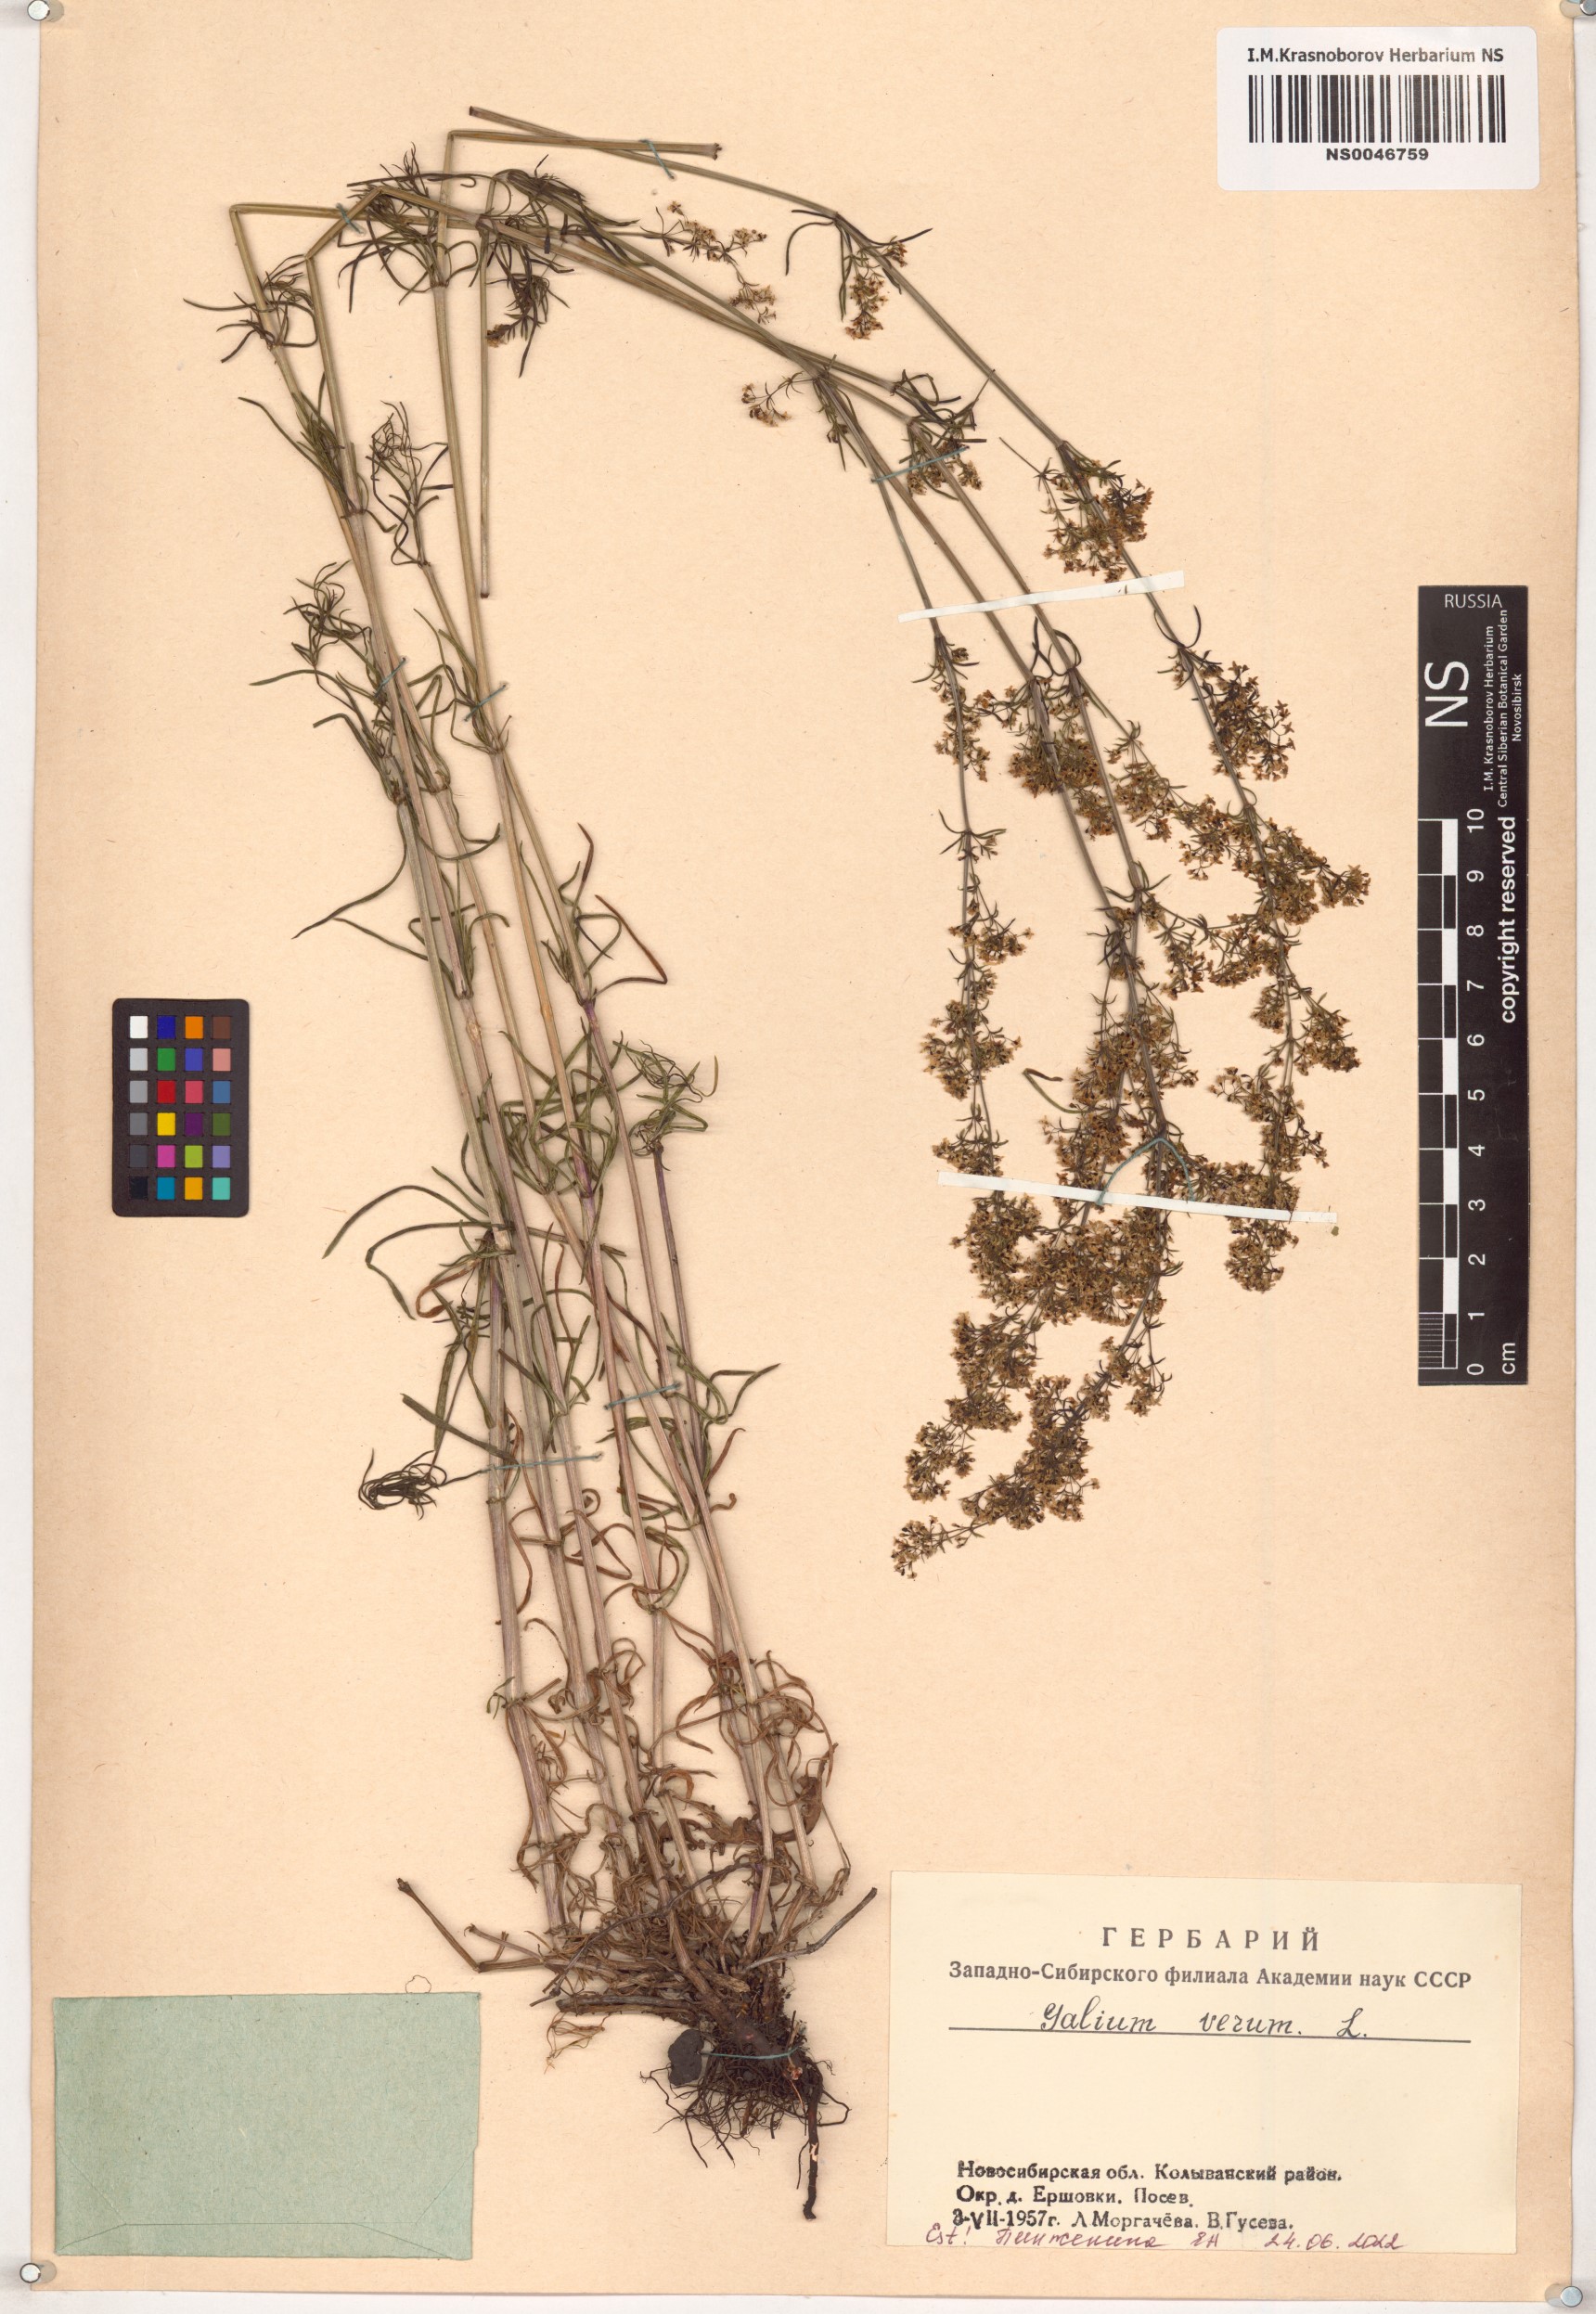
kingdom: Plantae
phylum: Tracheophyta
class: Magnoliopsida
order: Gentianales
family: Rubiaceae
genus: Galium
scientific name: Galium verum
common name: Lady's bedstraw
